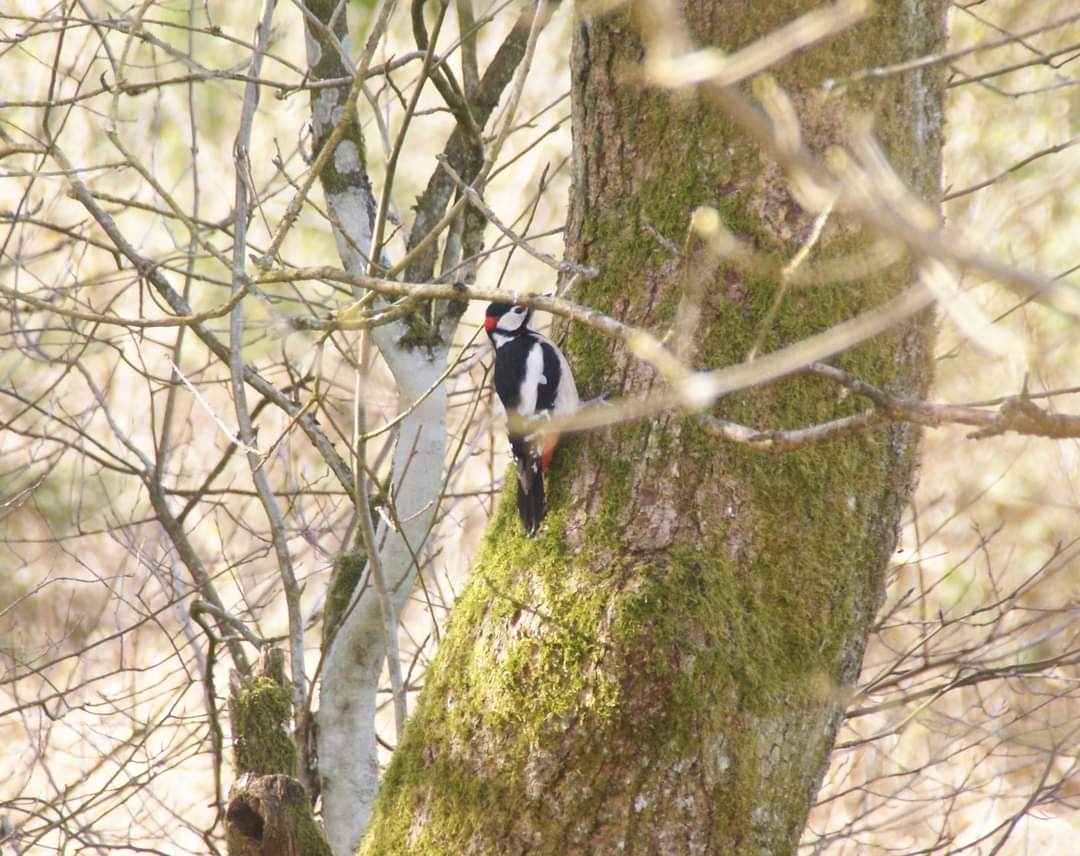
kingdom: Animalia
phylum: Chordata
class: Aves
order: Piciformes
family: Picidae
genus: Dendrocopos
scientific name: Dendrocopos major
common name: Stor flagspætte
